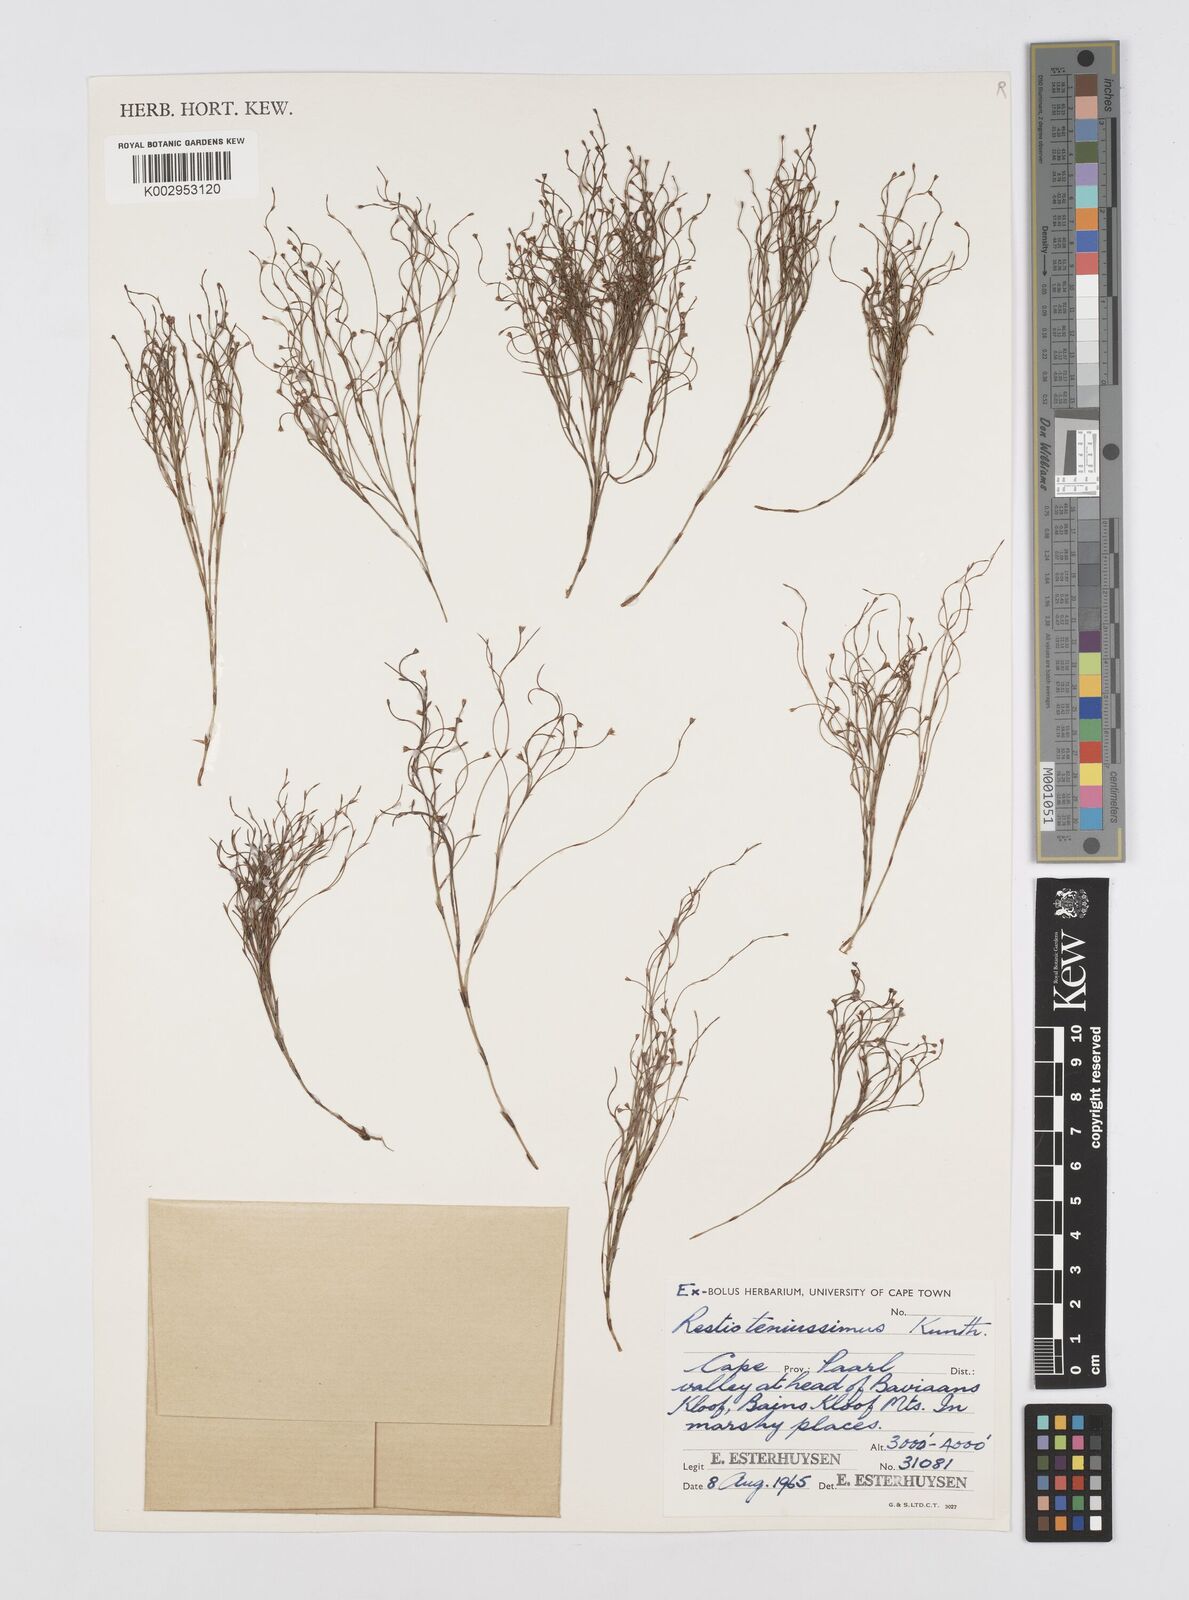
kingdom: Plantae
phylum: Tracheophyta
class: Liliopsida
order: Poales
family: Restionaceae
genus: Restio
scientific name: Restio tenuissimus
